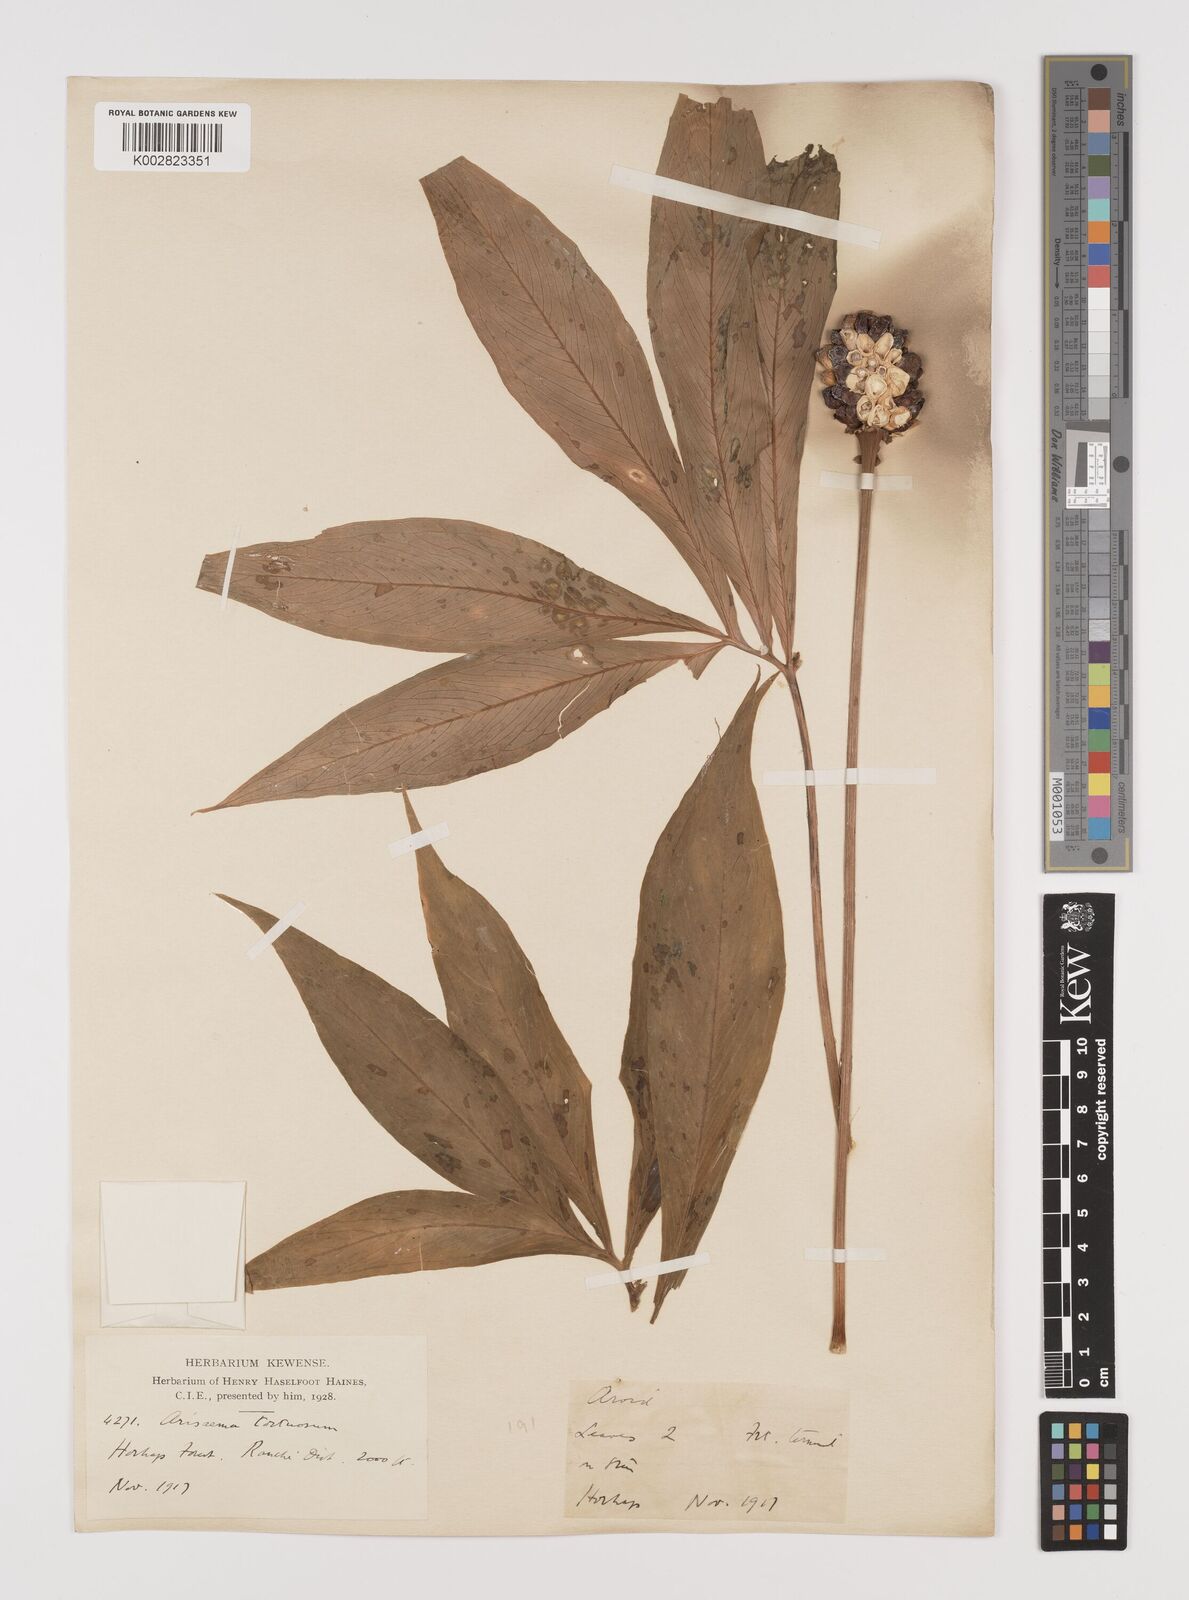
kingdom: Plantae
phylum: Tracheophyta
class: Liliopsida
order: Alismatales
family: Araceae
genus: Arisaema
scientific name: Arisaema tortuosum
